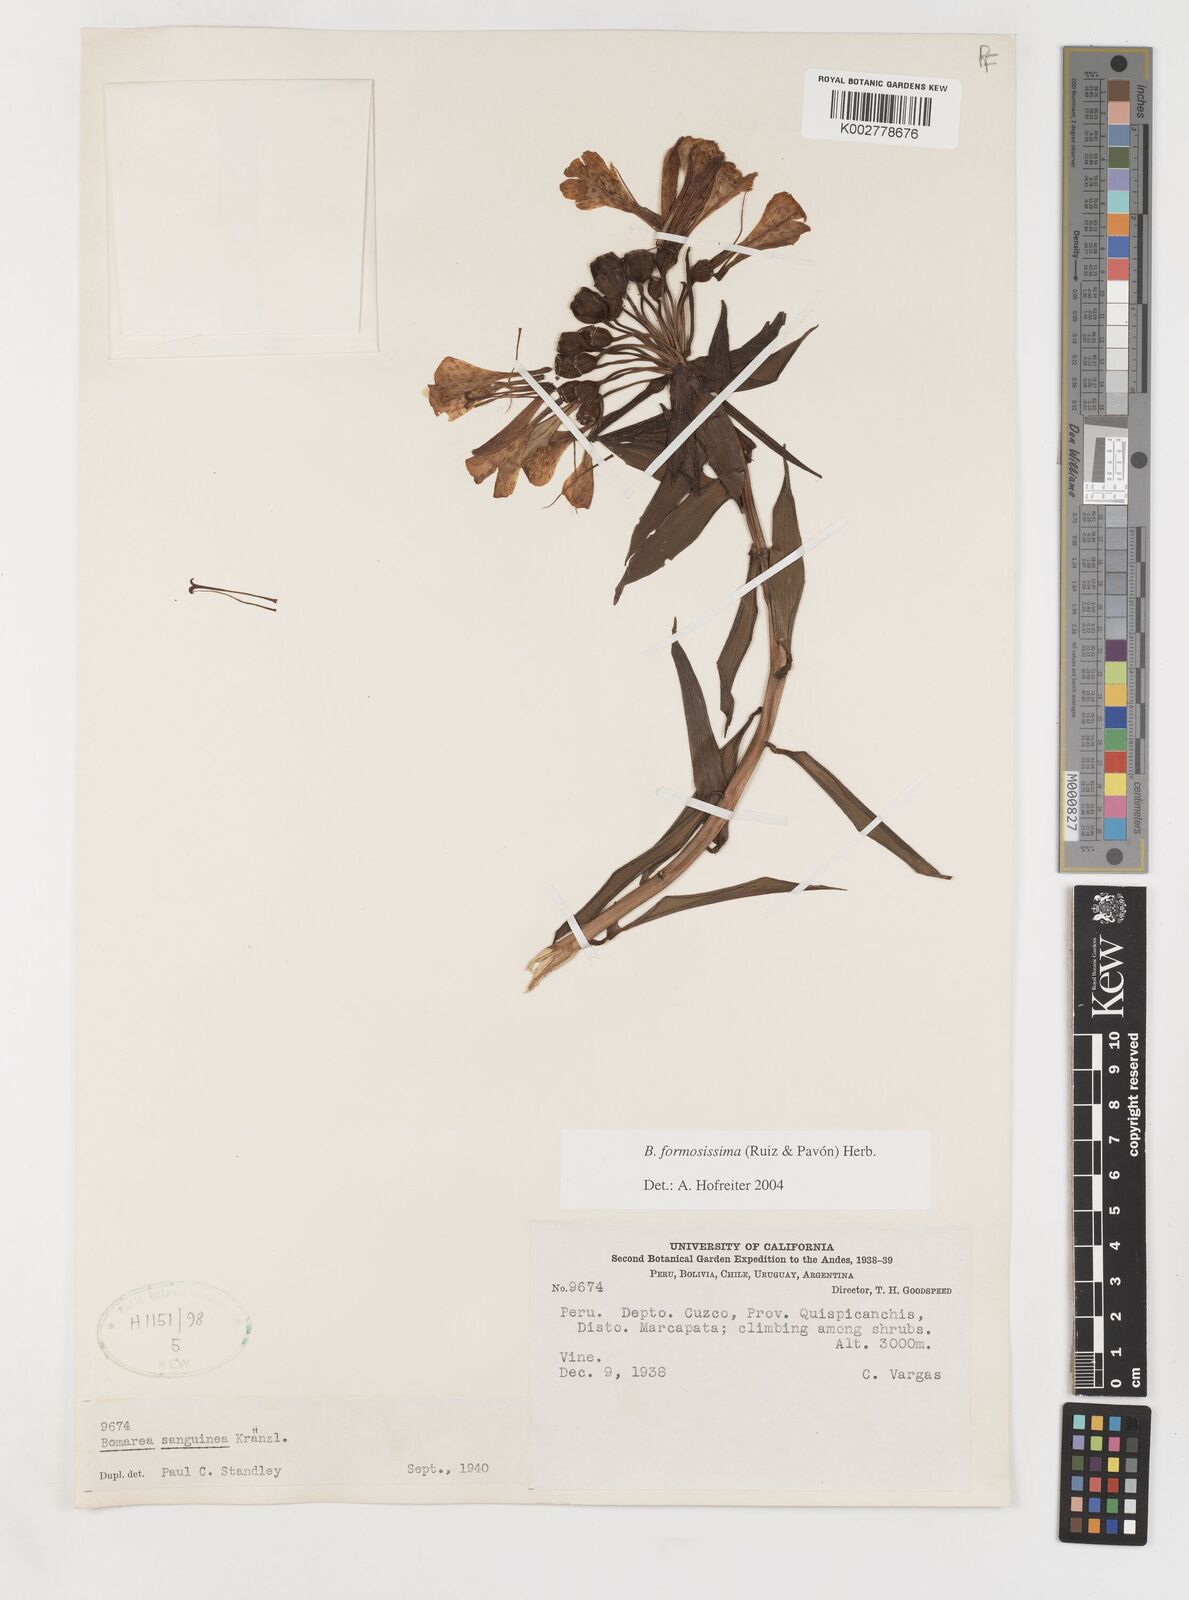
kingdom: Plantae
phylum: Tracheophyta
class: Liliopsida
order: Liliales
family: Alstroemeriaceae
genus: Bomarea
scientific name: Bomarea formosissima
